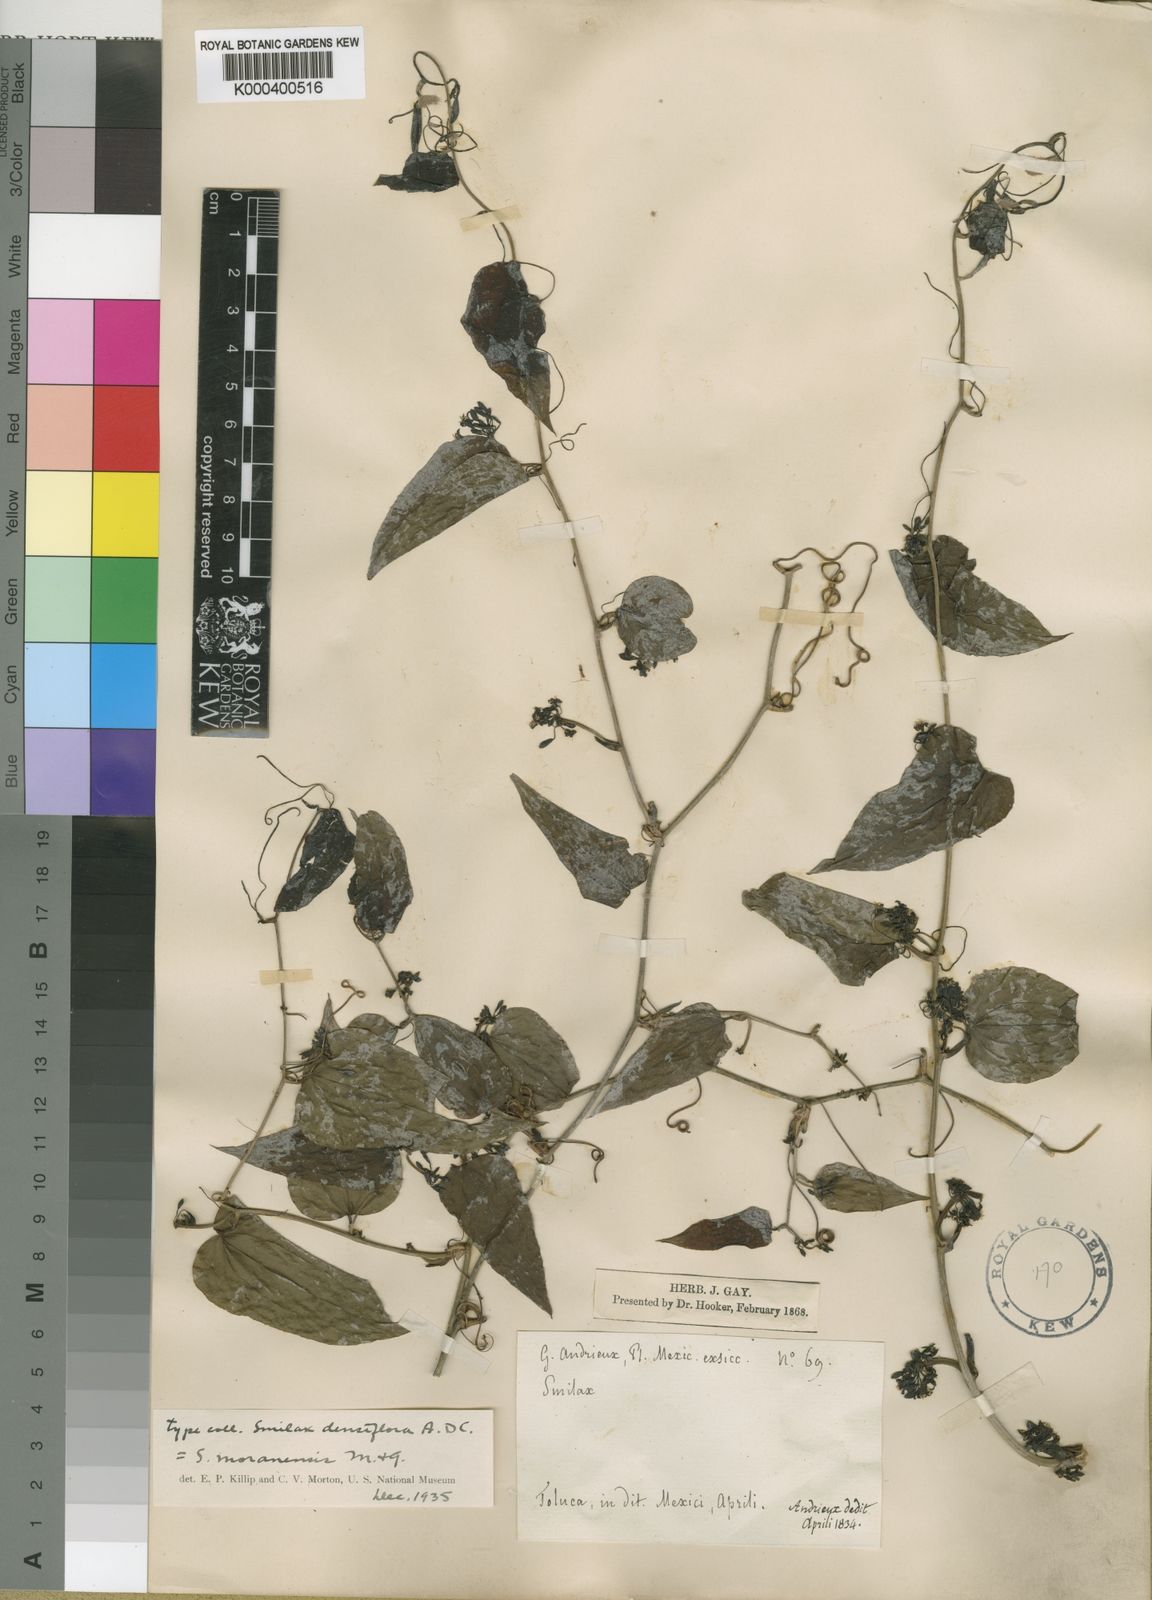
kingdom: Plantae
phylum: Tracheophyta
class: Liliopsida
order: Liliales
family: Smilacaceae
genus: Smilax
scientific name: Smilax moranensis
